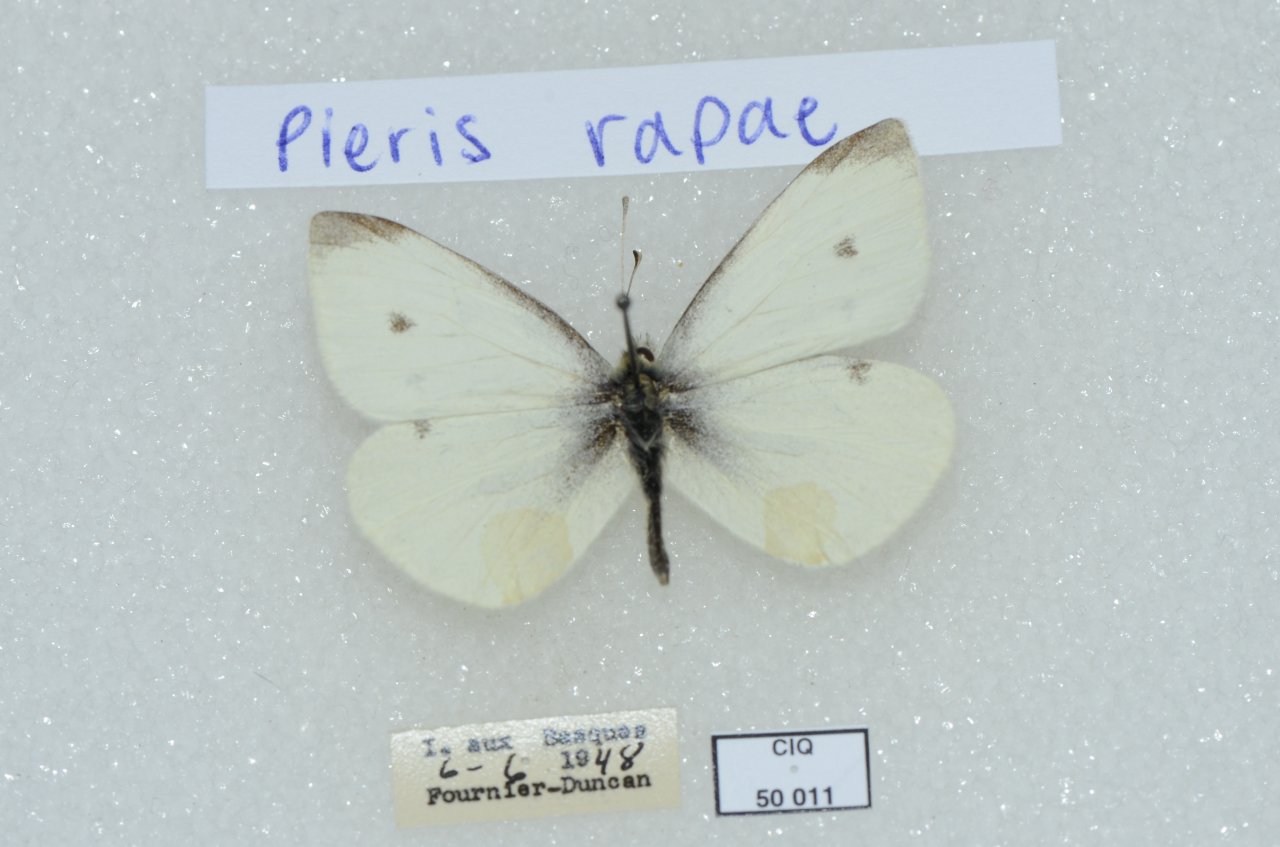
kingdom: Animalia
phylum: Arthropoda
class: Insecta
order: Lepidoptera
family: Pieridae
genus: Pieris
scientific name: Pieris rapae
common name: Cabbage White
